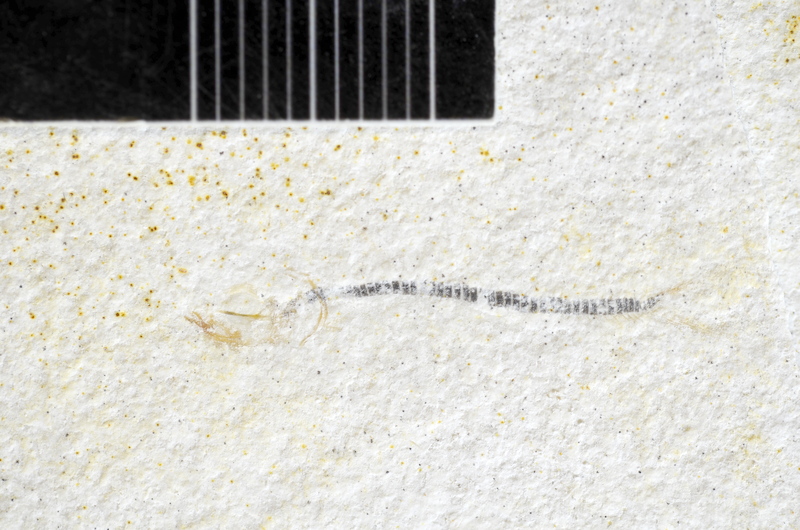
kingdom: Animalia
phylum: Chordata
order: Salmoniformes
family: Orthogonikleithridae
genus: Orthogonikleithrus
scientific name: Orthogonikleithrus hoelli
